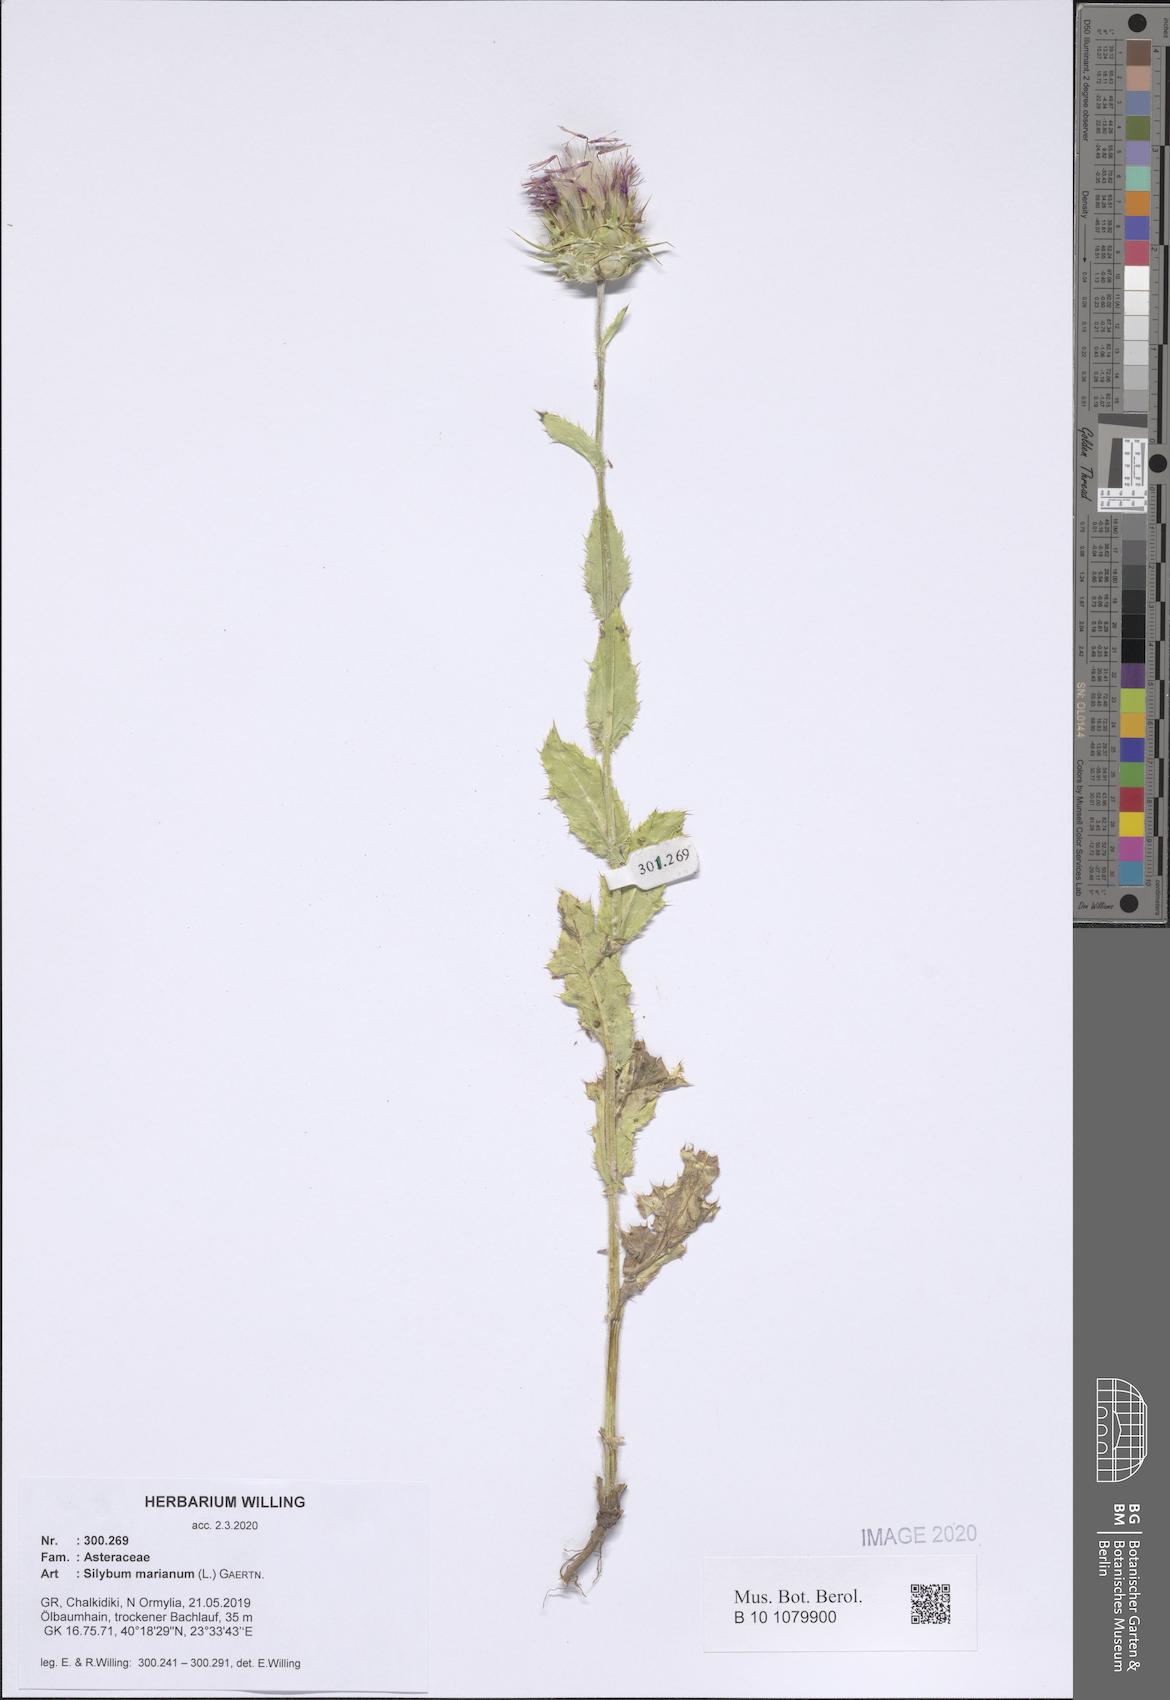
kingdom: Plantae
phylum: Tracheophyta
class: Magnoliopsida
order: Asterales
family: Asteraceae
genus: Silybum
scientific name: Silybum marianum
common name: Milk thistle
